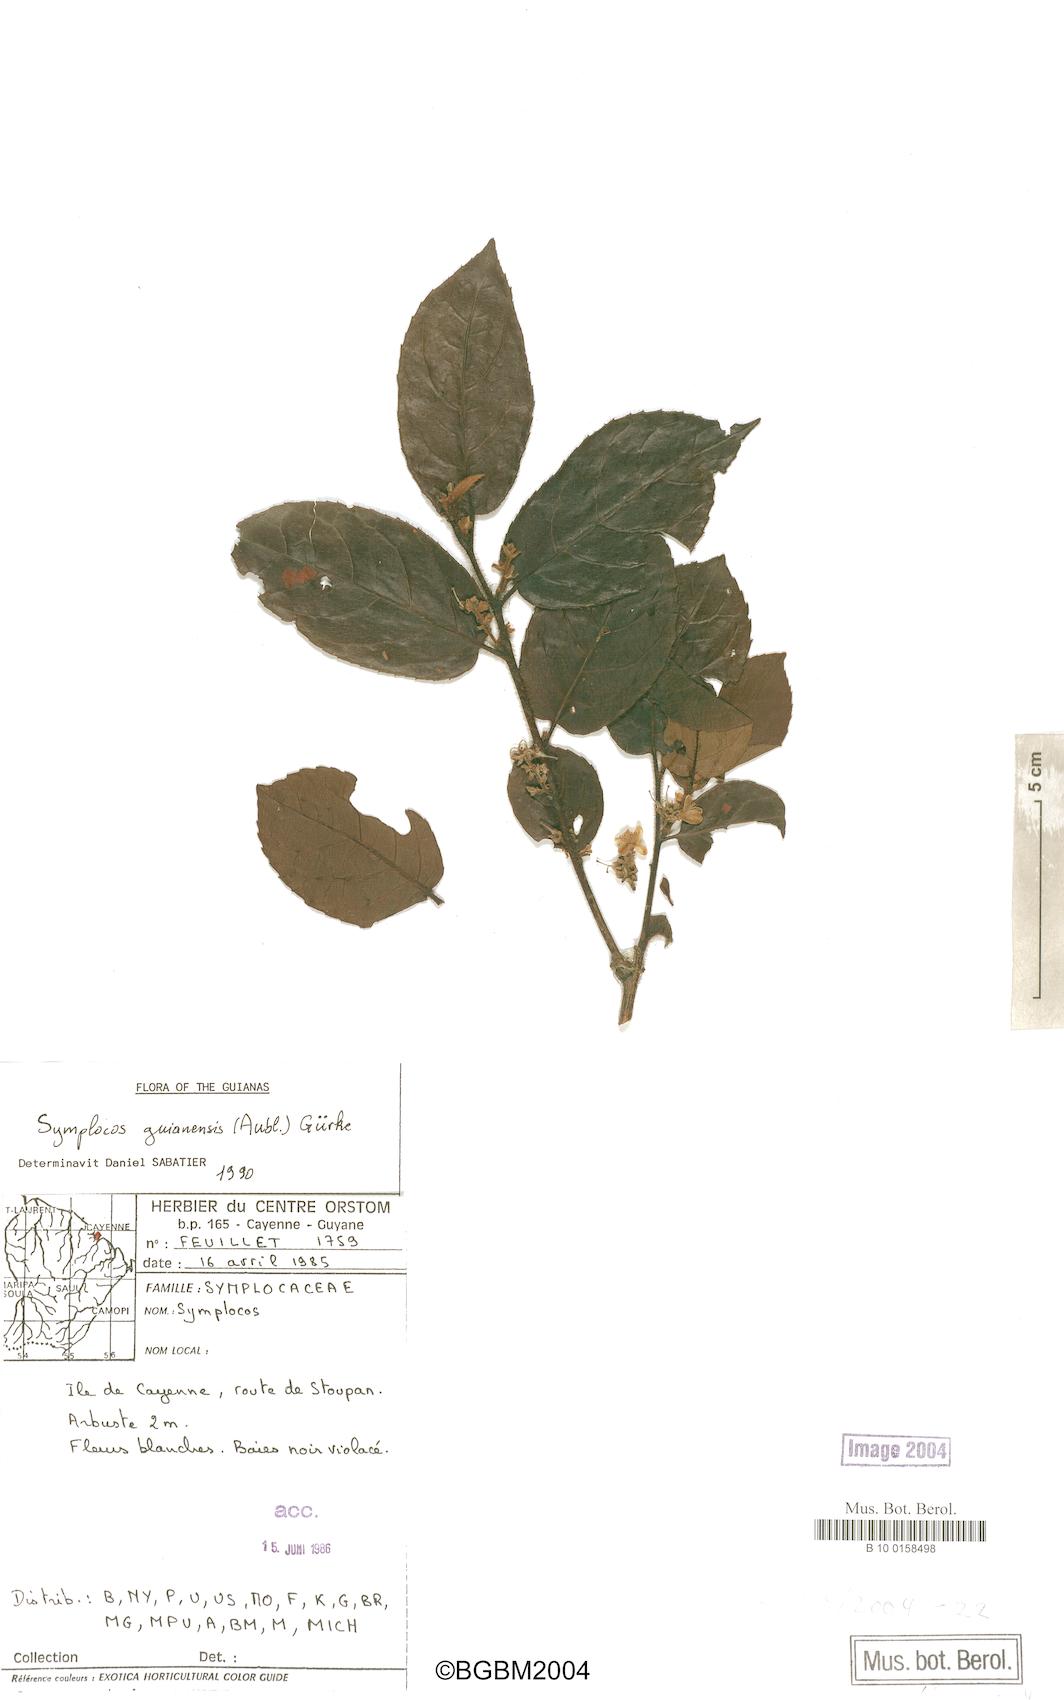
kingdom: Plantae
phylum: Tracheophyta
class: Magnoliopsida
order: Ericales
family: Symplocaceae
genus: Symplocos
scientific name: Symplocos guianensis
